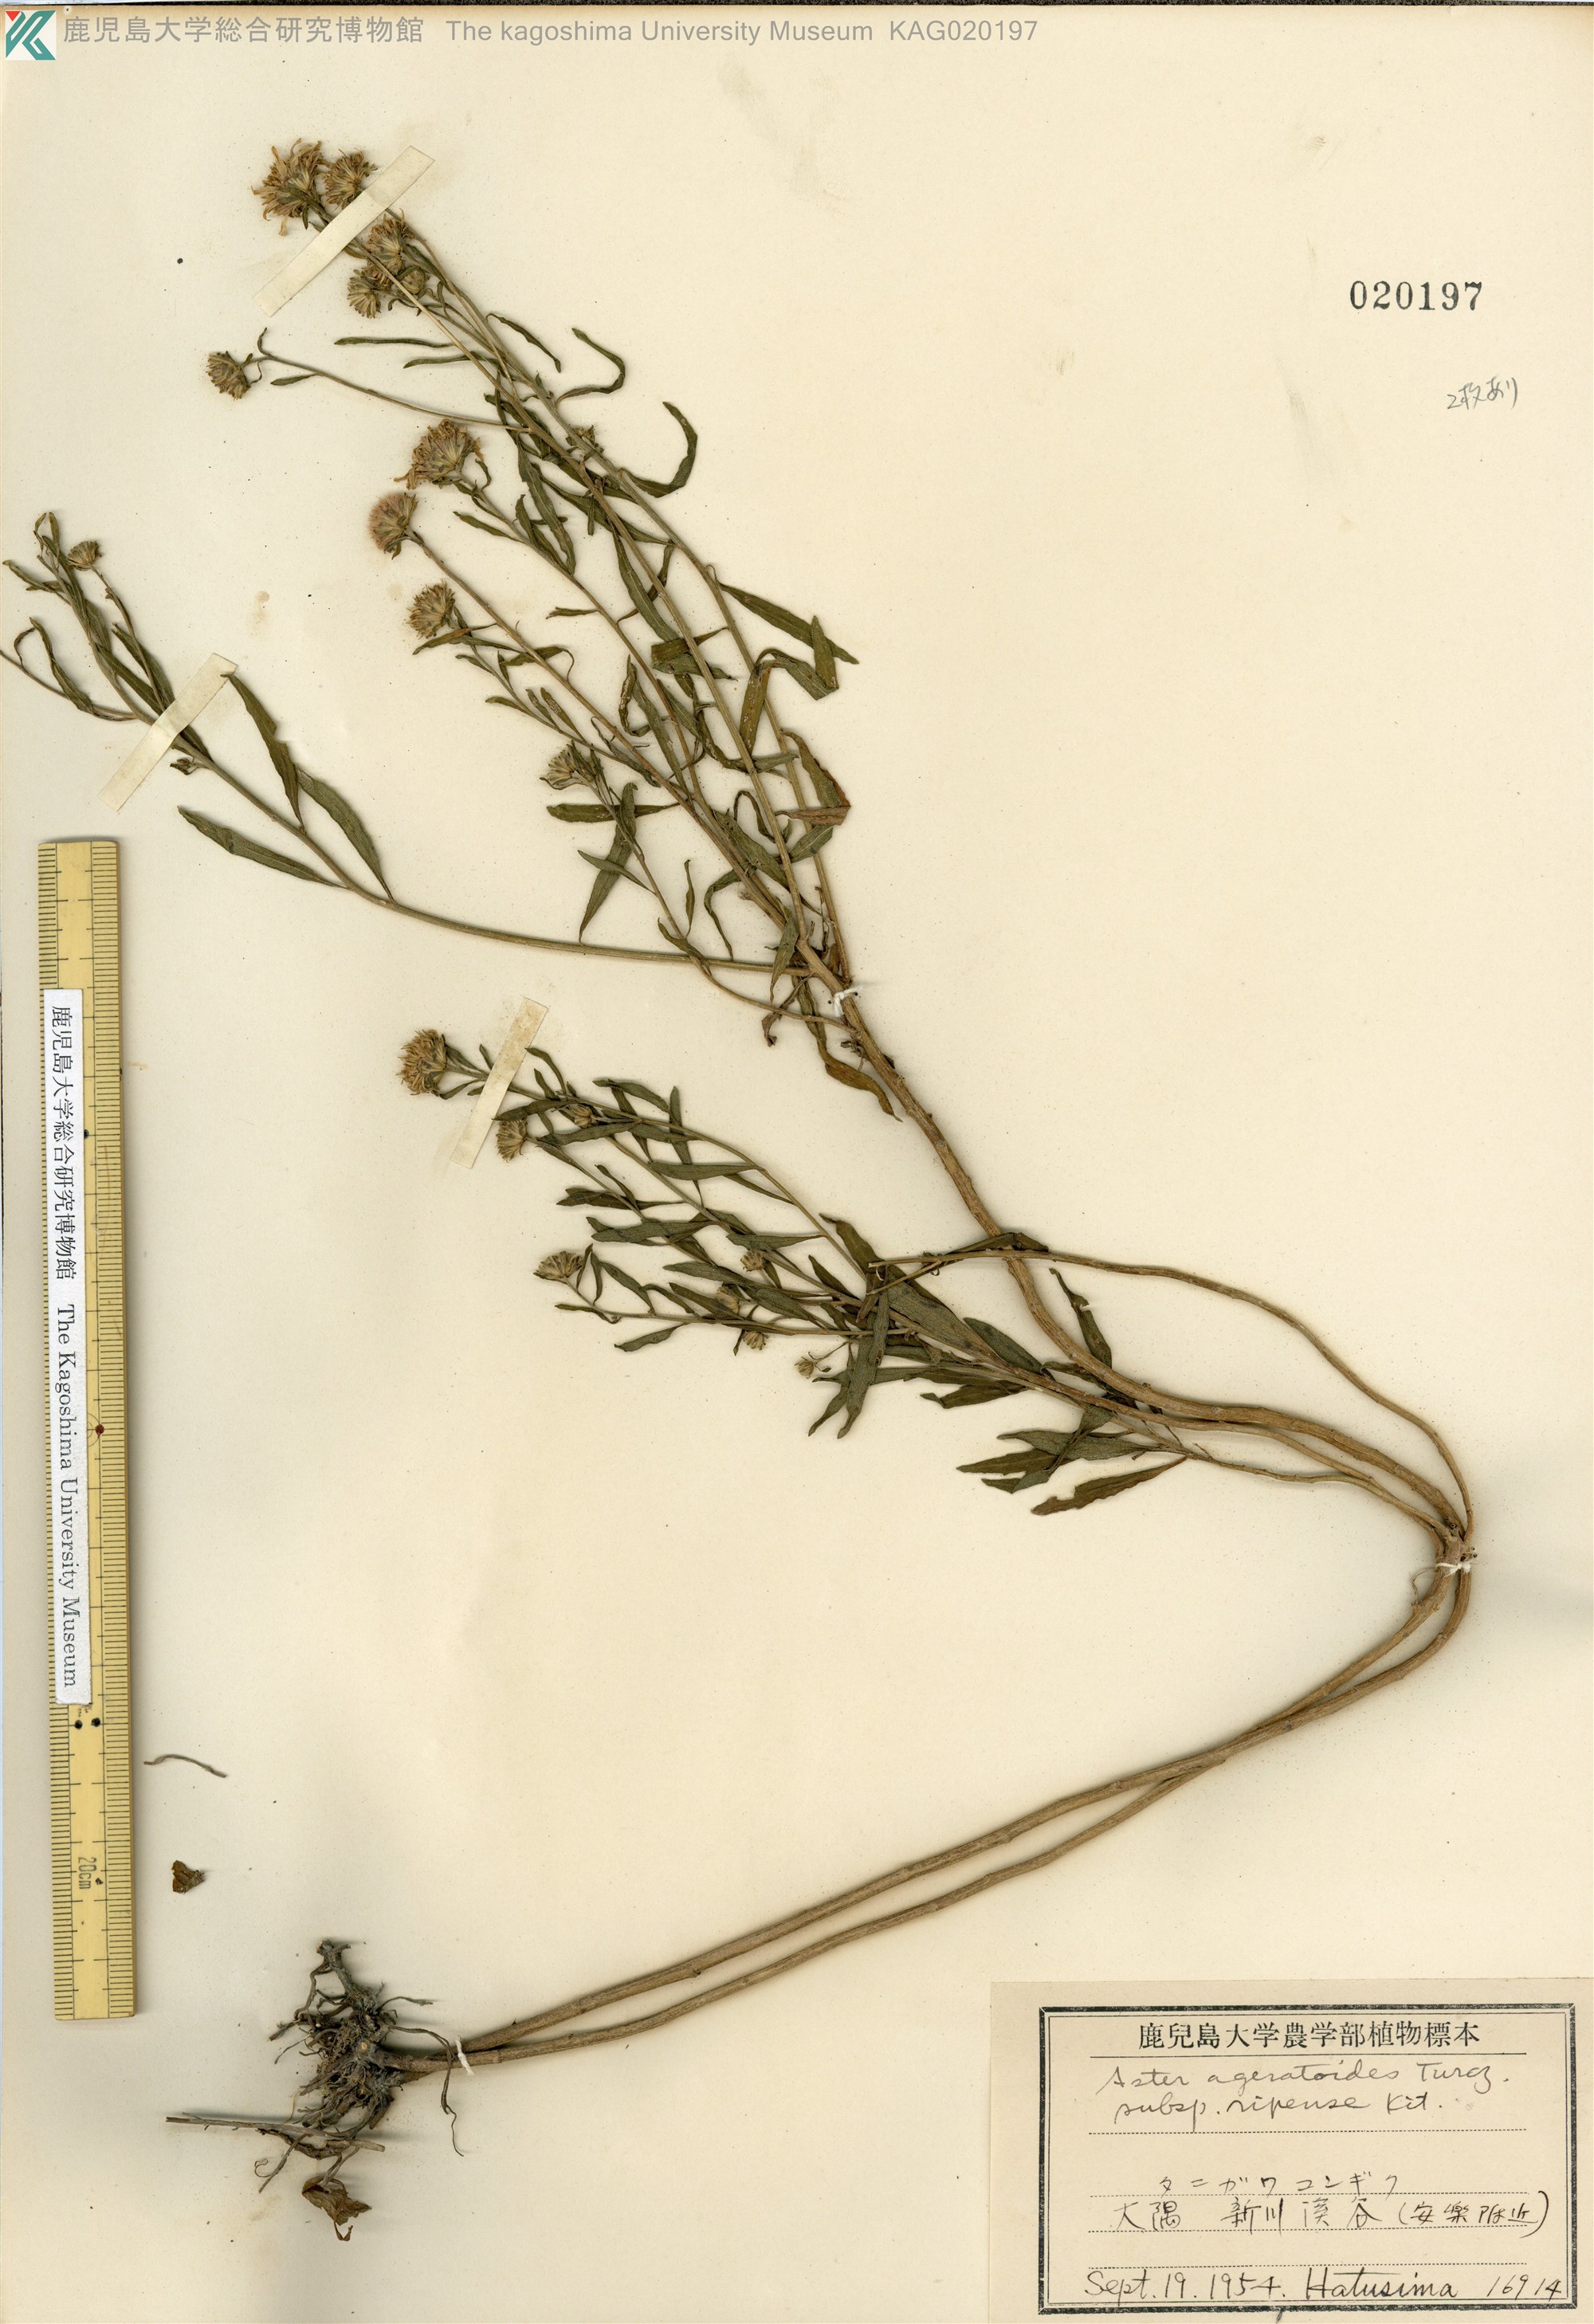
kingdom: Plantae
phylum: Tracheophyta
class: Magnoliopsida
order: Asterales
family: Asteraceae
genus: Aster
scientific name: Aster microcephalus
